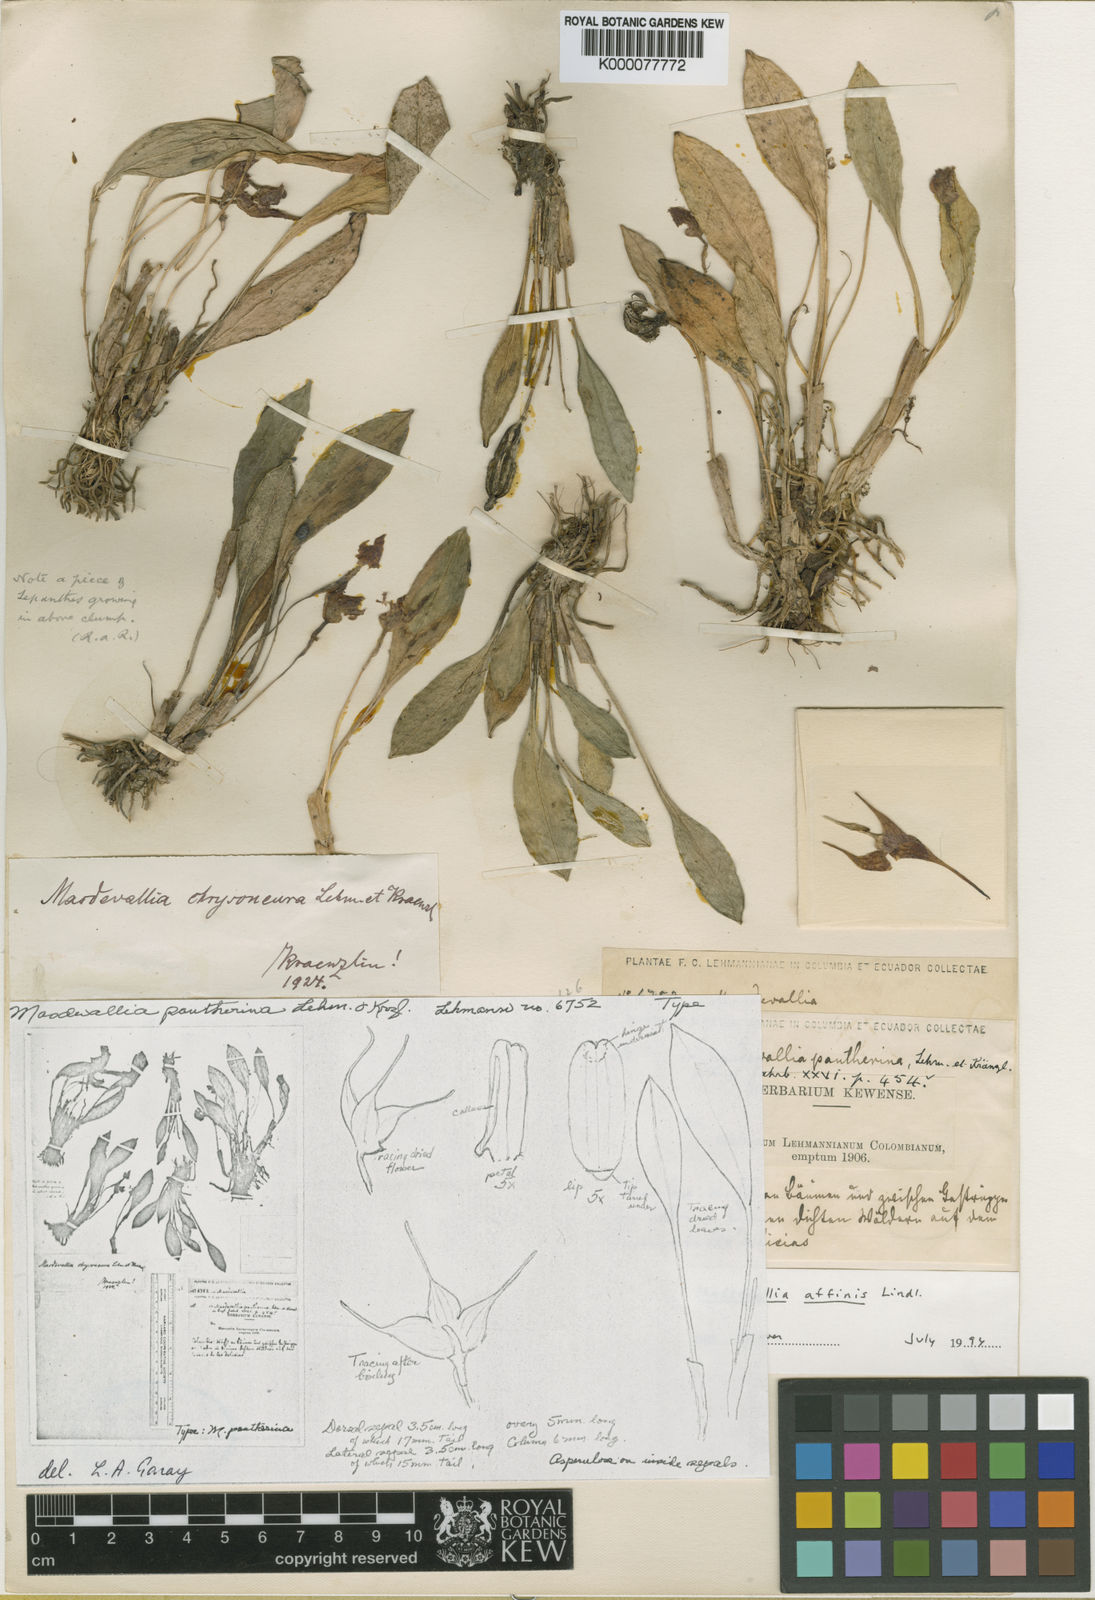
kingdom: Plantae
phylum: Tracheophyta
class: Liliopsida
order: Asparagales
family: Orchidaceae
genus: Masdevallia
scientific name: Masdevallia laevis
